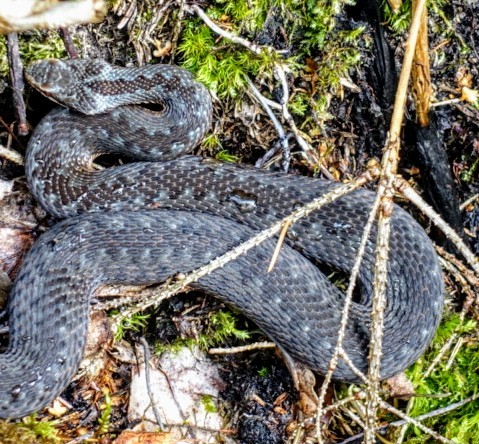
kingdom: Animalia
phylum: Chordata
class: Squamata
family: Viperidae
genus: Vipera
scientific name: Vipera berus
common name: Adder
